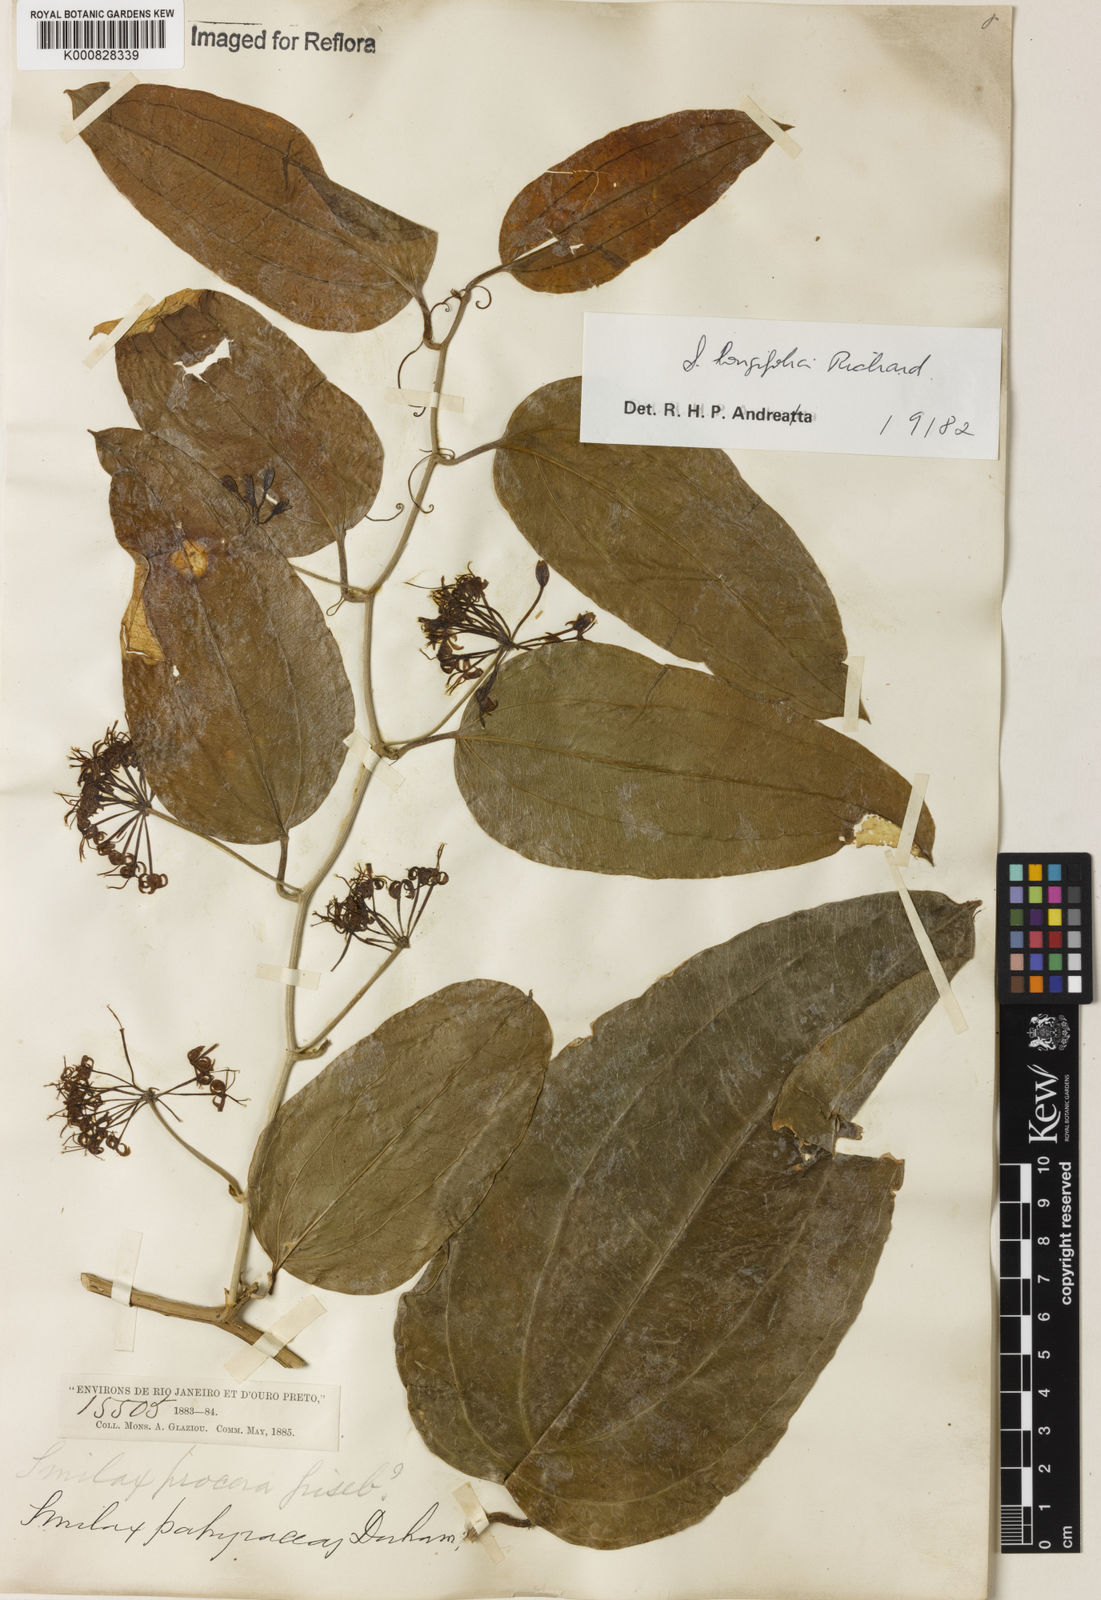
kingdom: Plantae
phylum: Tracheophyta
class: Liliopsida
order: Liliales
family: Smilacaceae
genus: Smilax
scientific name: Smilax longifolia
